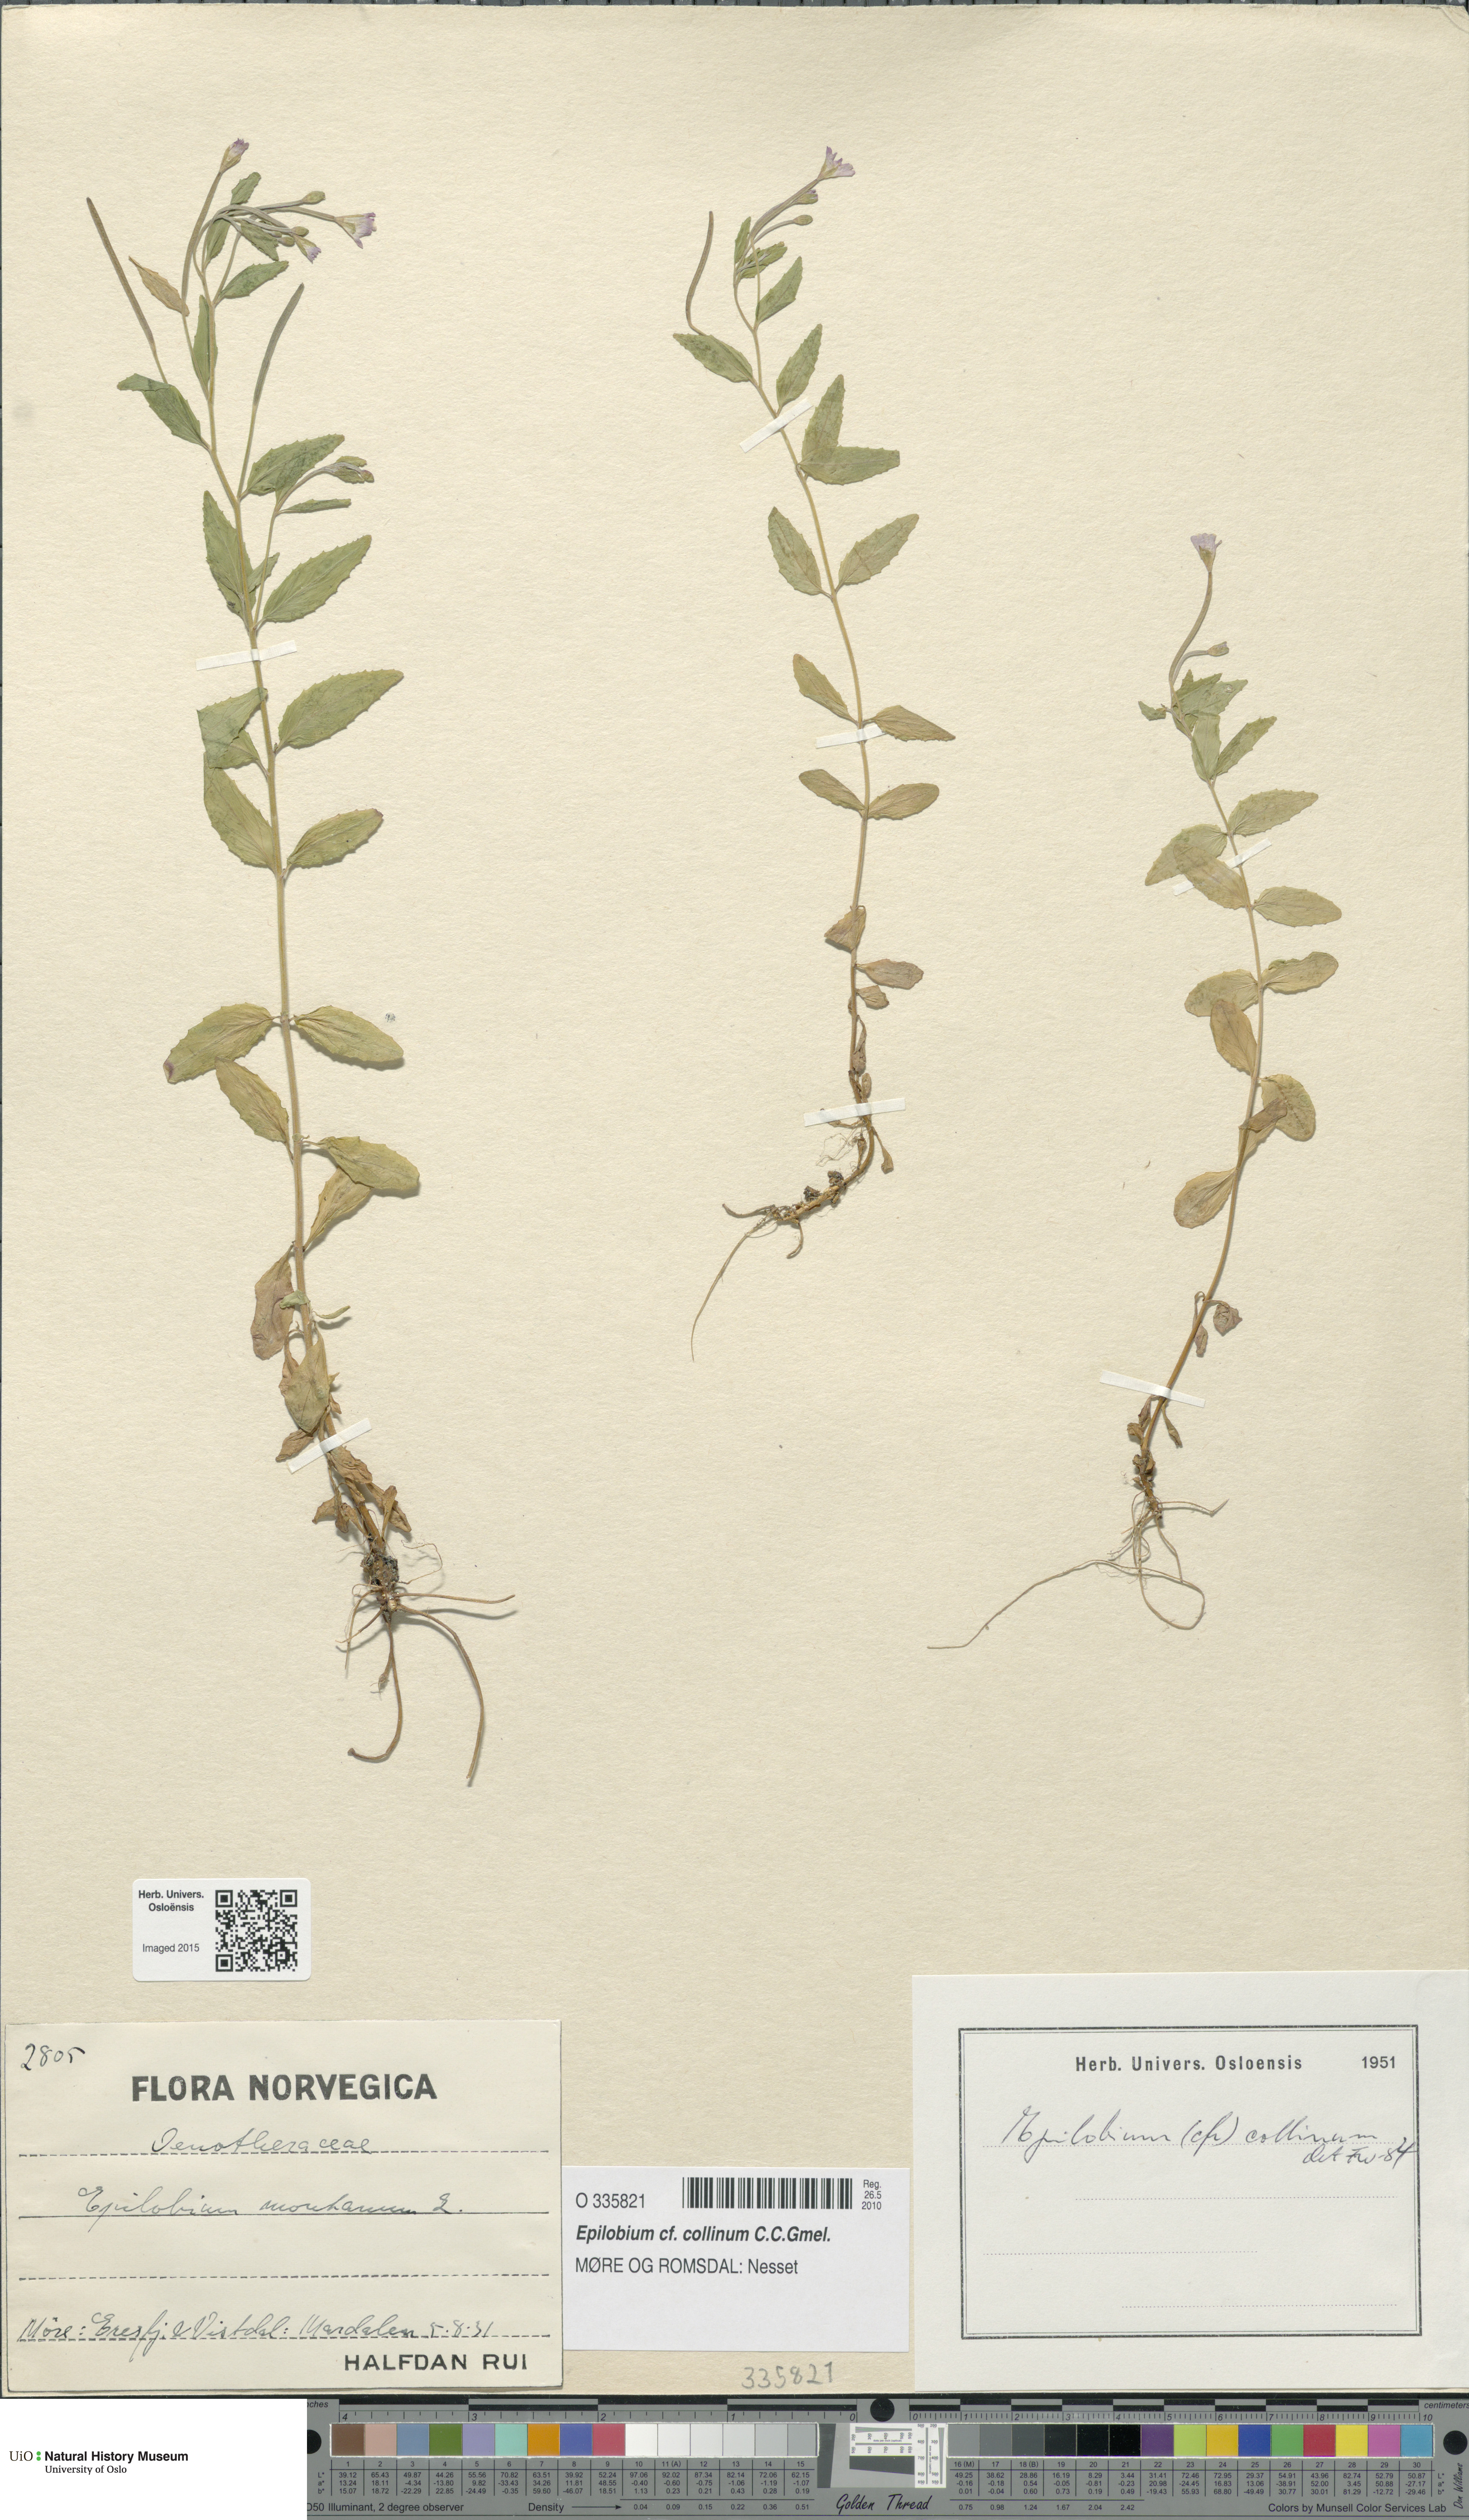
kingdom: Plantae
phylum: Tracheophyta
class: Magnoliopsida
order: Myrtales
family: Onagraceae
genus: Epilobium
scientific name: Epilobium collinum
